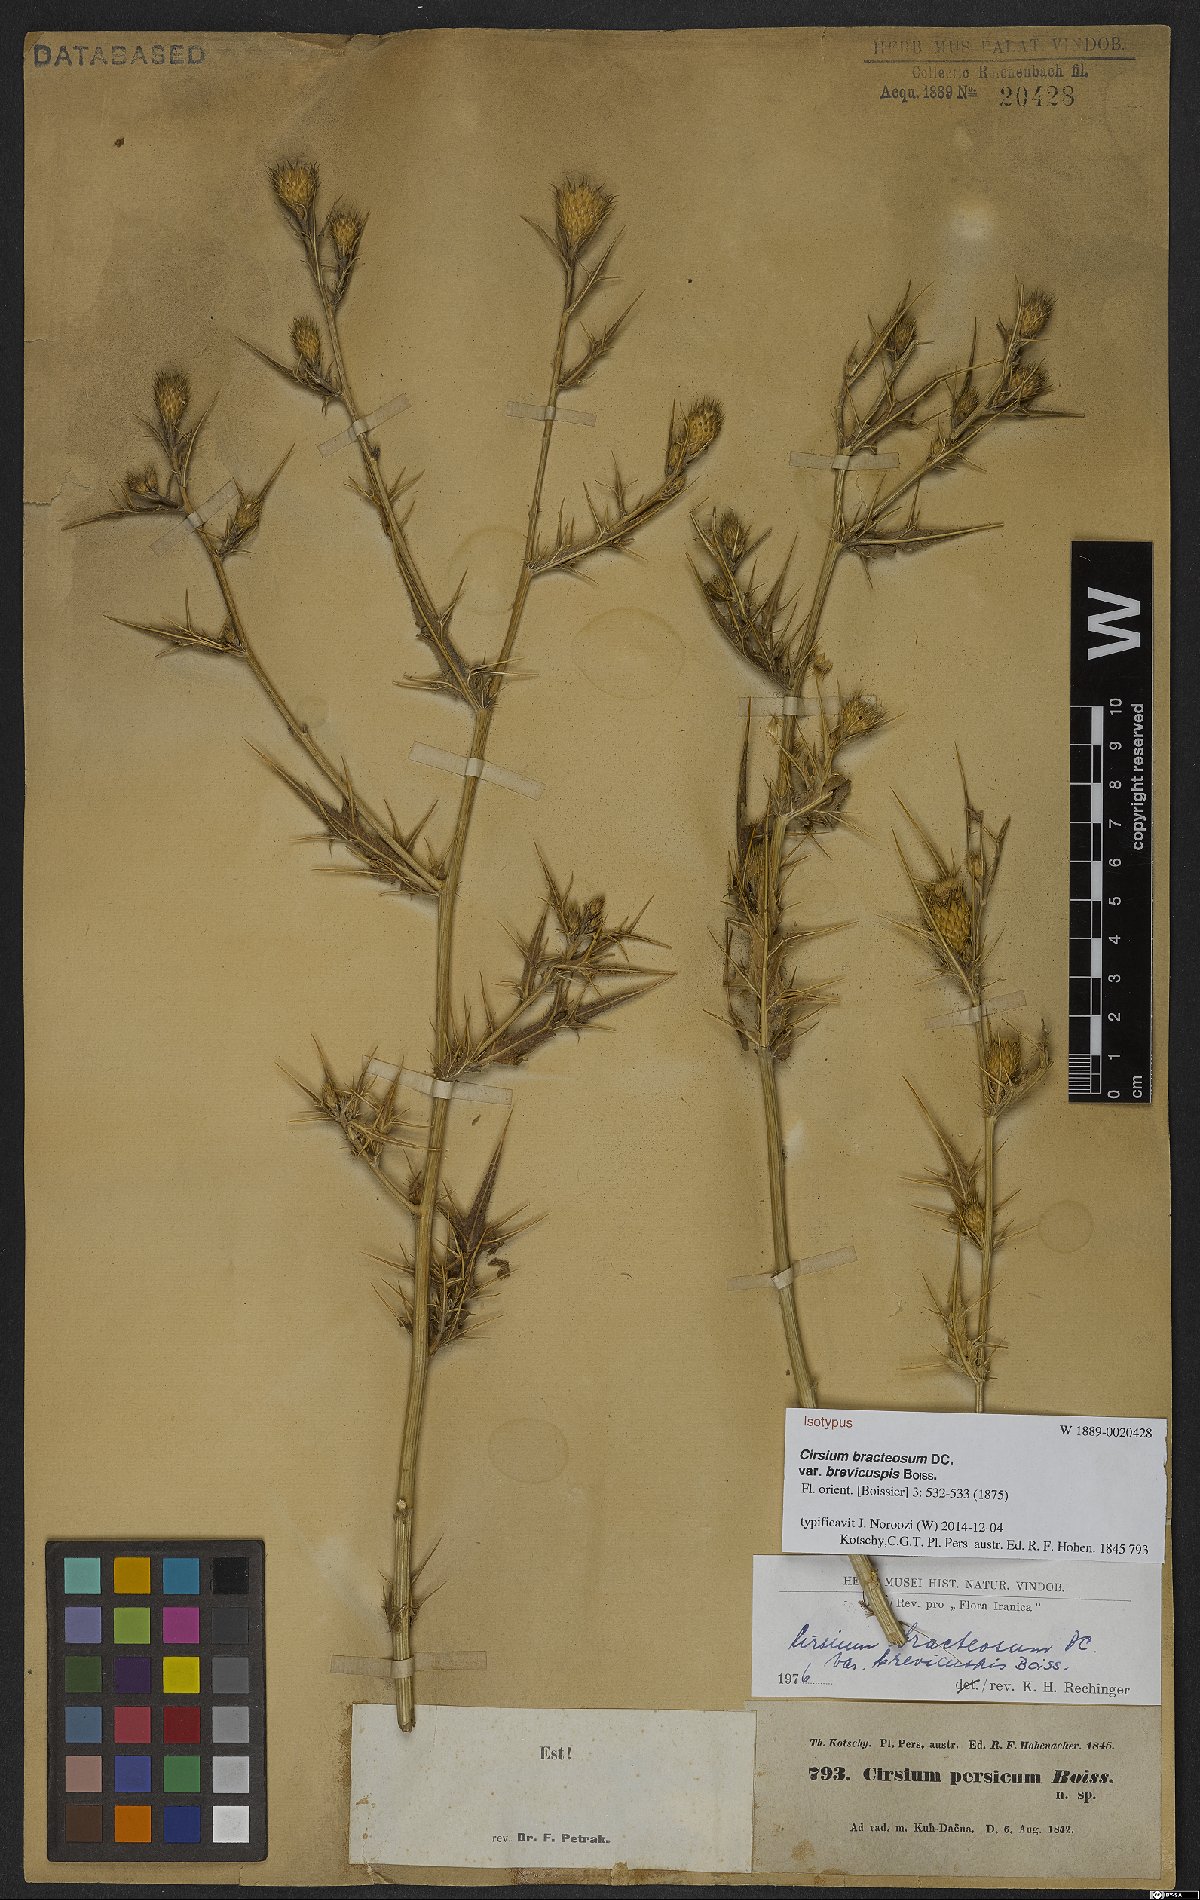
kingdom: Plantae
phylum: Tracheophyta
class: Magnoliopsida
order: Asterales
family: Asteraceae
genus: Lophiolepis
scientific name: Lophiolepis bracteosa
